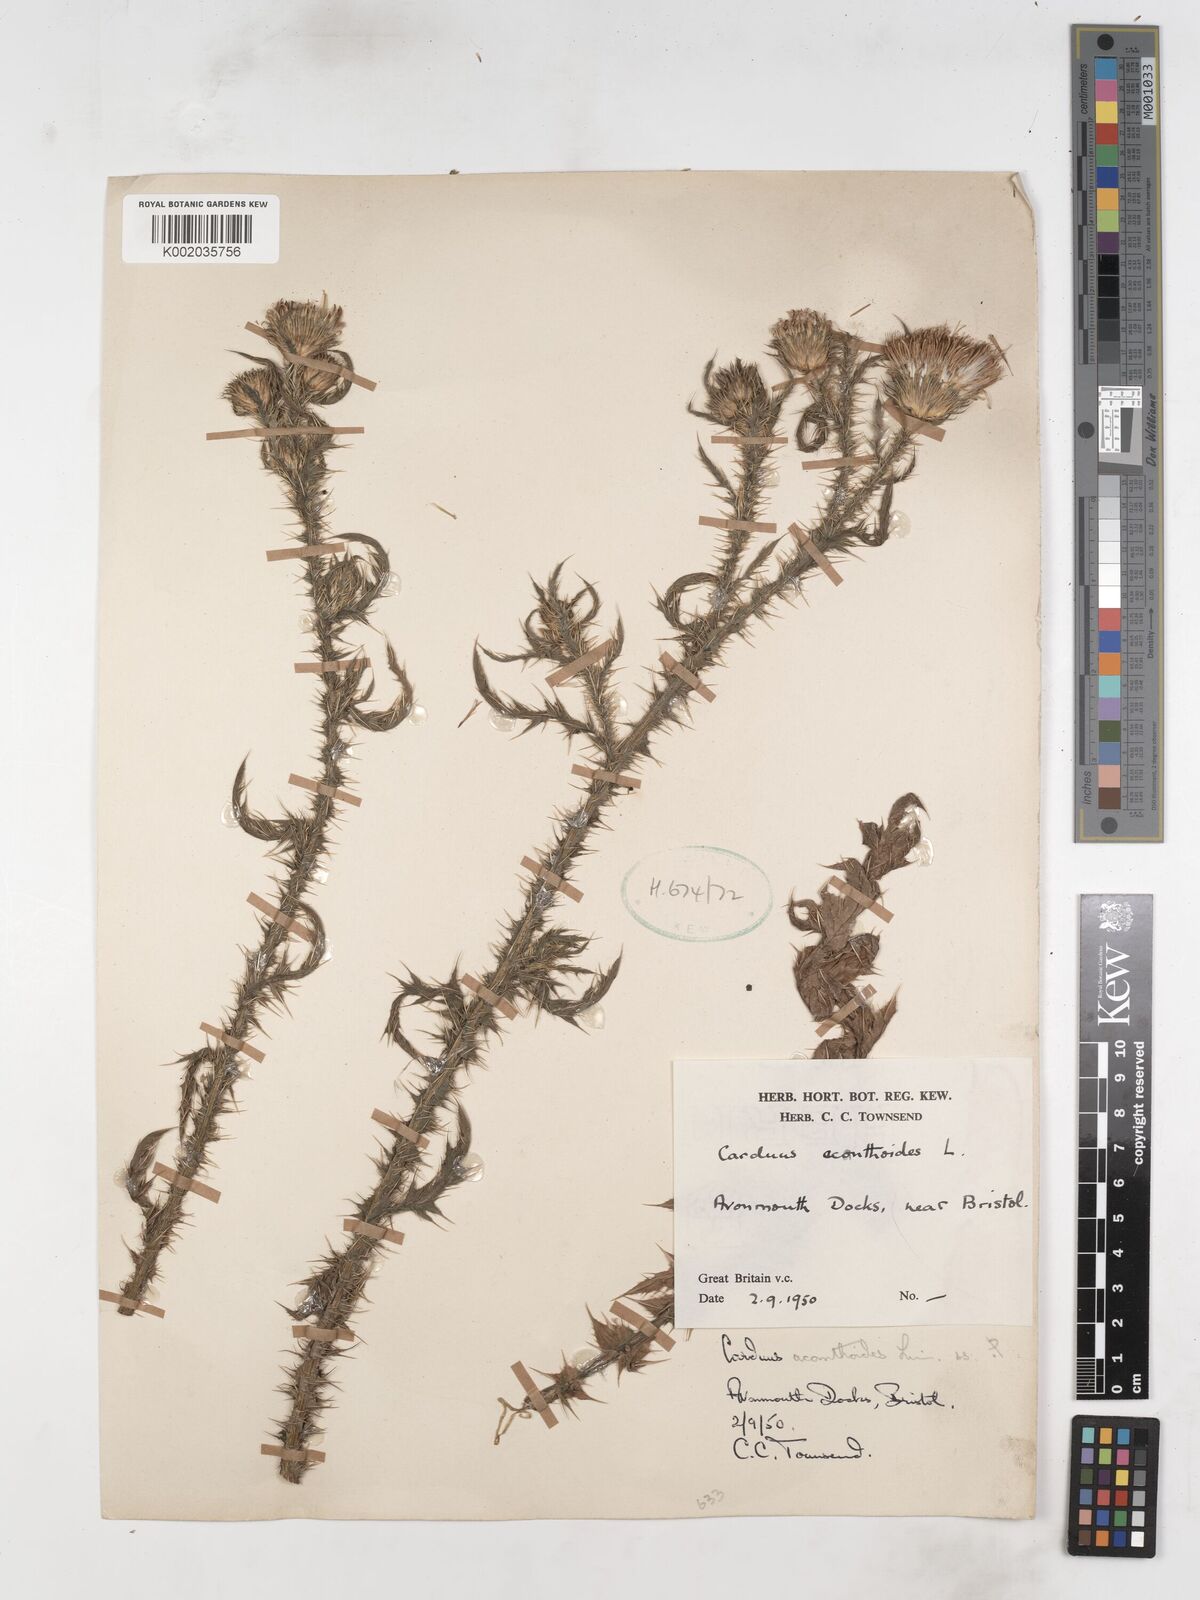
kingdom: Plantae
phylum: Tracheophyta
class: Magnoliopsida
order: Asterales
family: Asteraceae
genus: Carduus
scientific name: Carduus acanthoides
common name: Plumeless thistle
